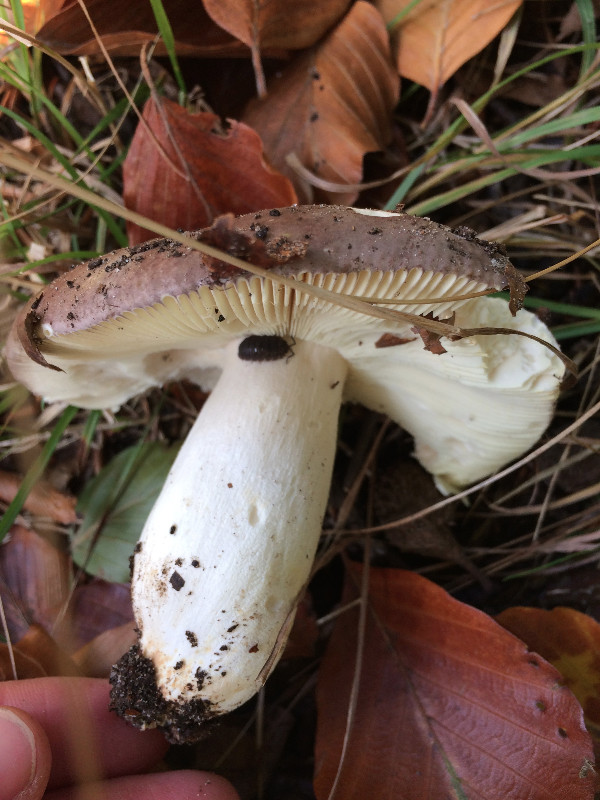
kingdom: Fungi
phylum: Basidiomycota
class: Agaricomycetes
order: Russulales
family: Russulaceae
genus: Russula
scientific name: Russula cyanoxantha
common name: broget skørhat
